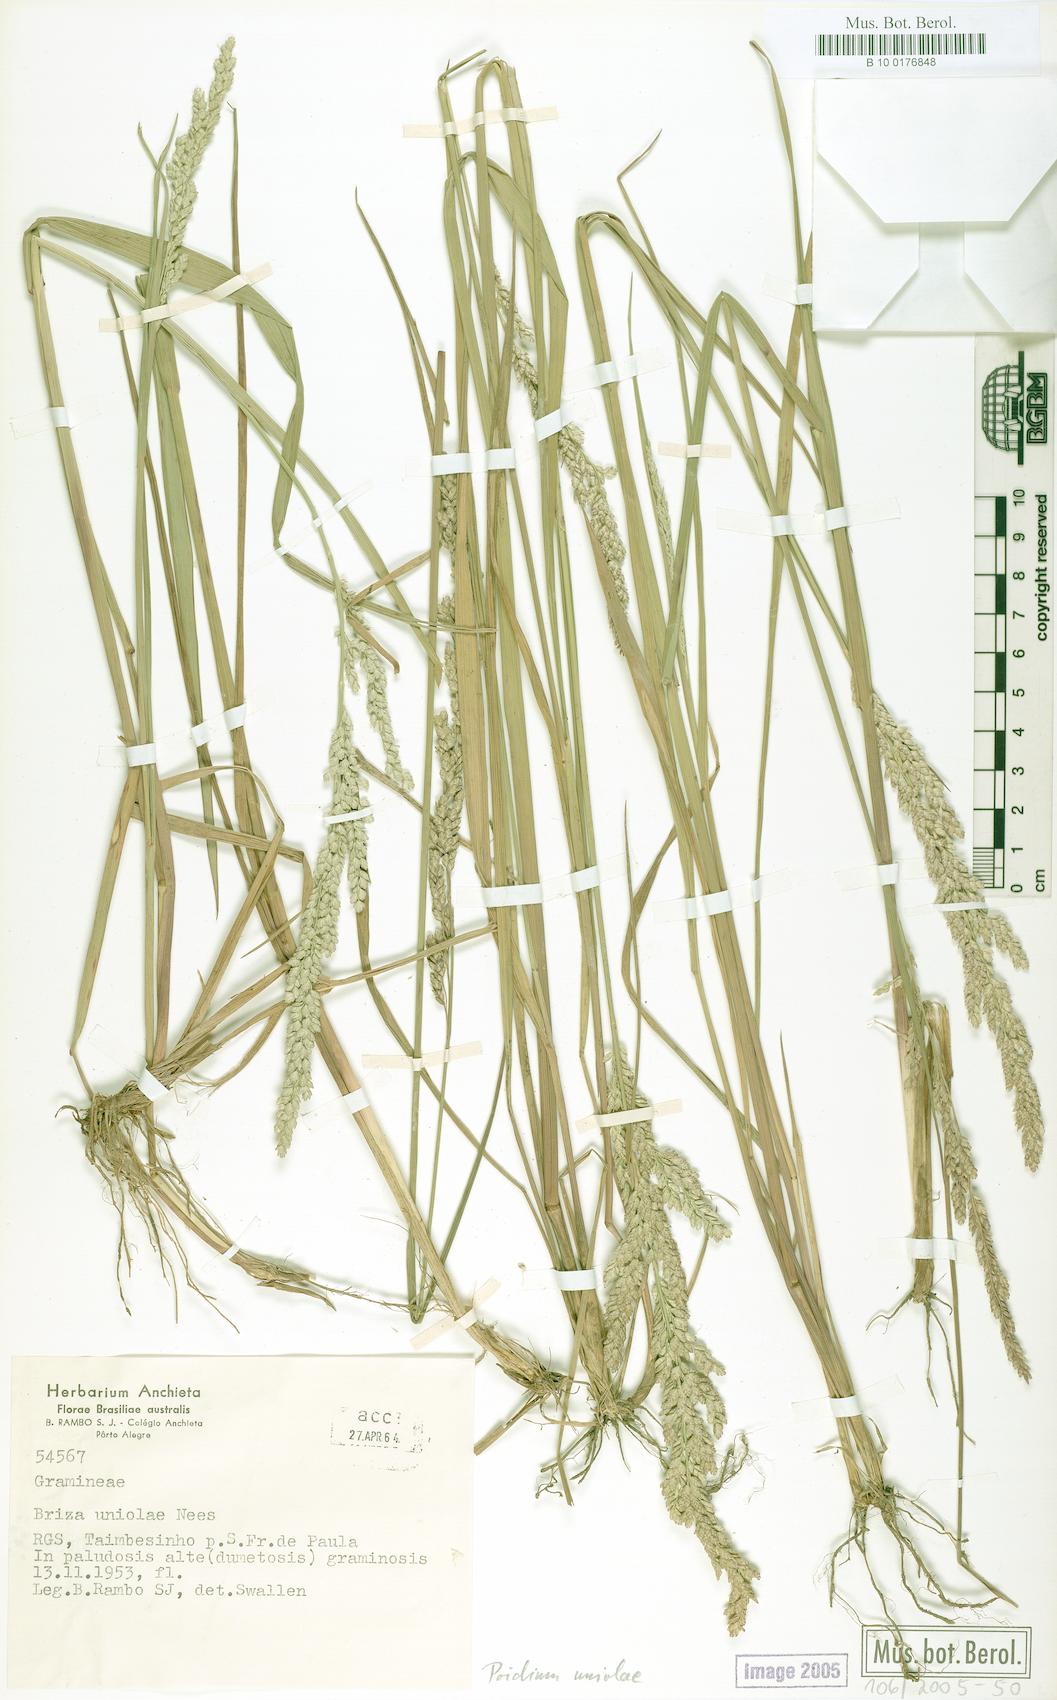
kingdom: Plantae
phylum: Tracheophyta
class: Liliopsida
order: Poales
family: Poaceae
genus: Poidium
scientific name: Poidium uniolae
